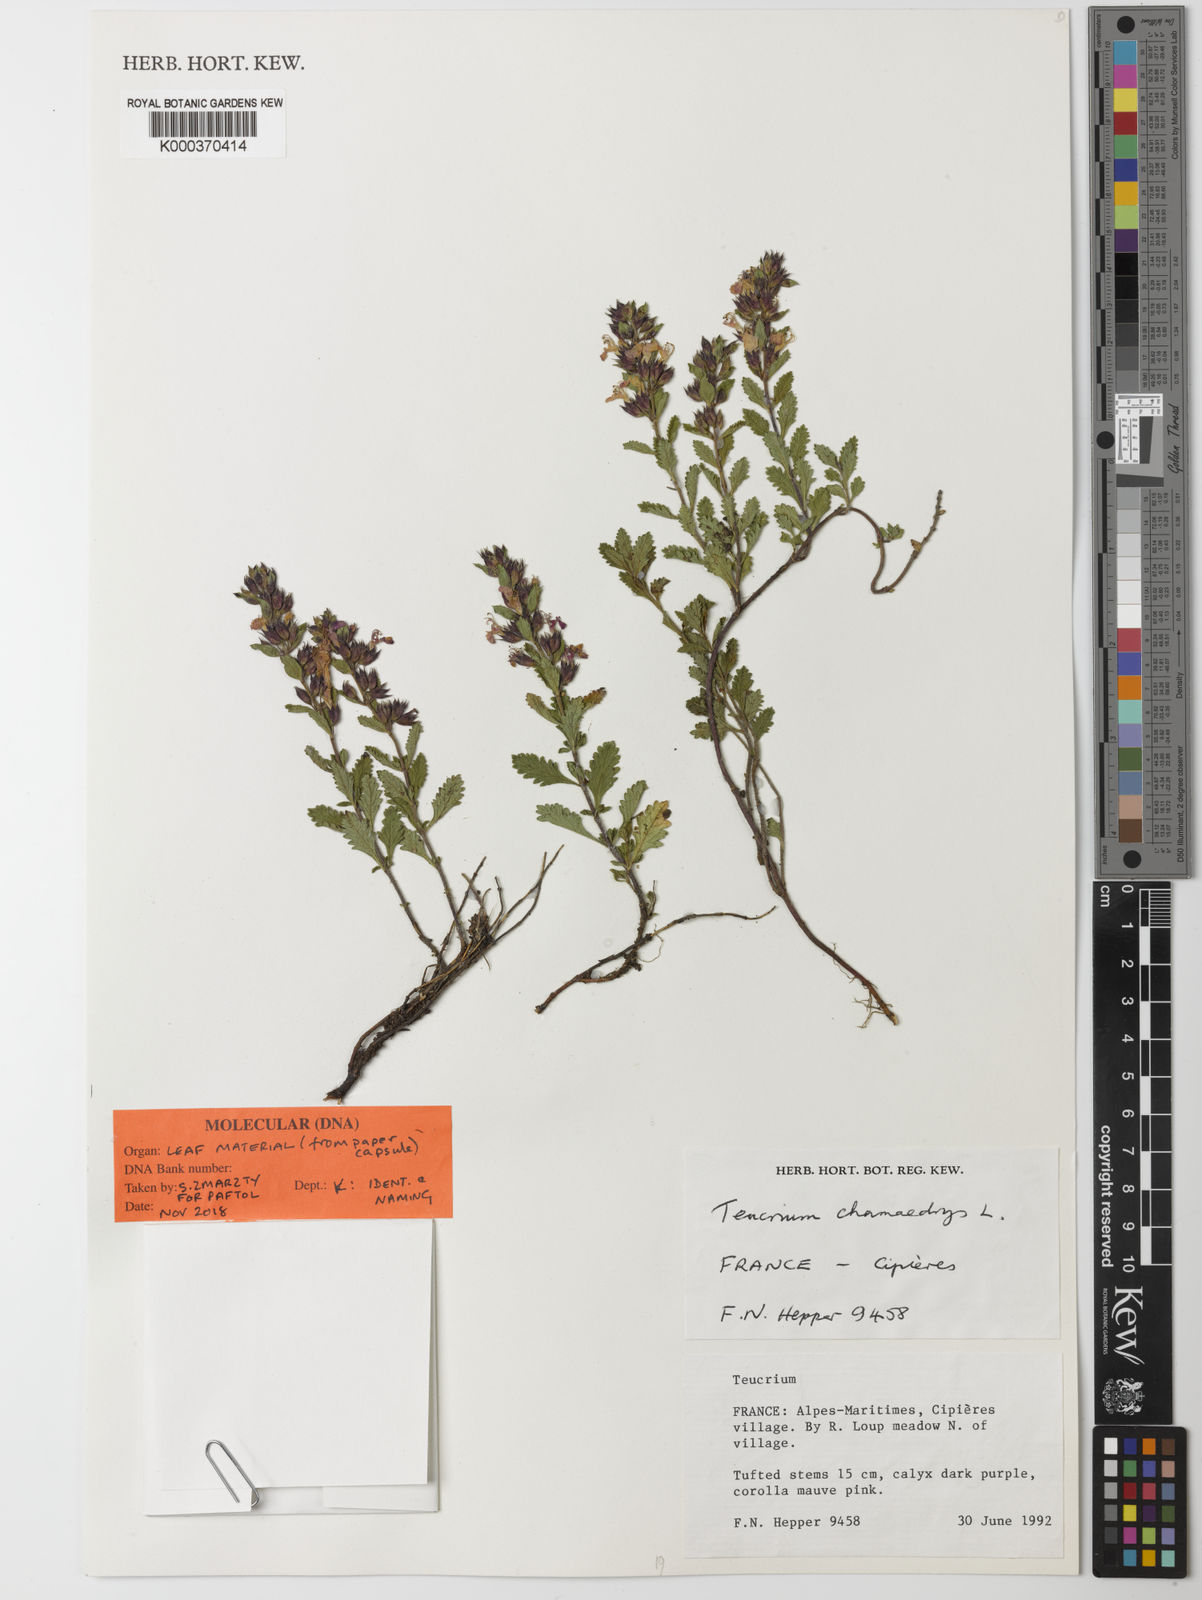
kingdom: Plantae
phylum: Tracheophyta
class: Magnoliopsida
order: Lamiales
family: Lamiaceae
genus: Teucrium
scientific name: Teucrium chamaedrys
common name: Wall germander
